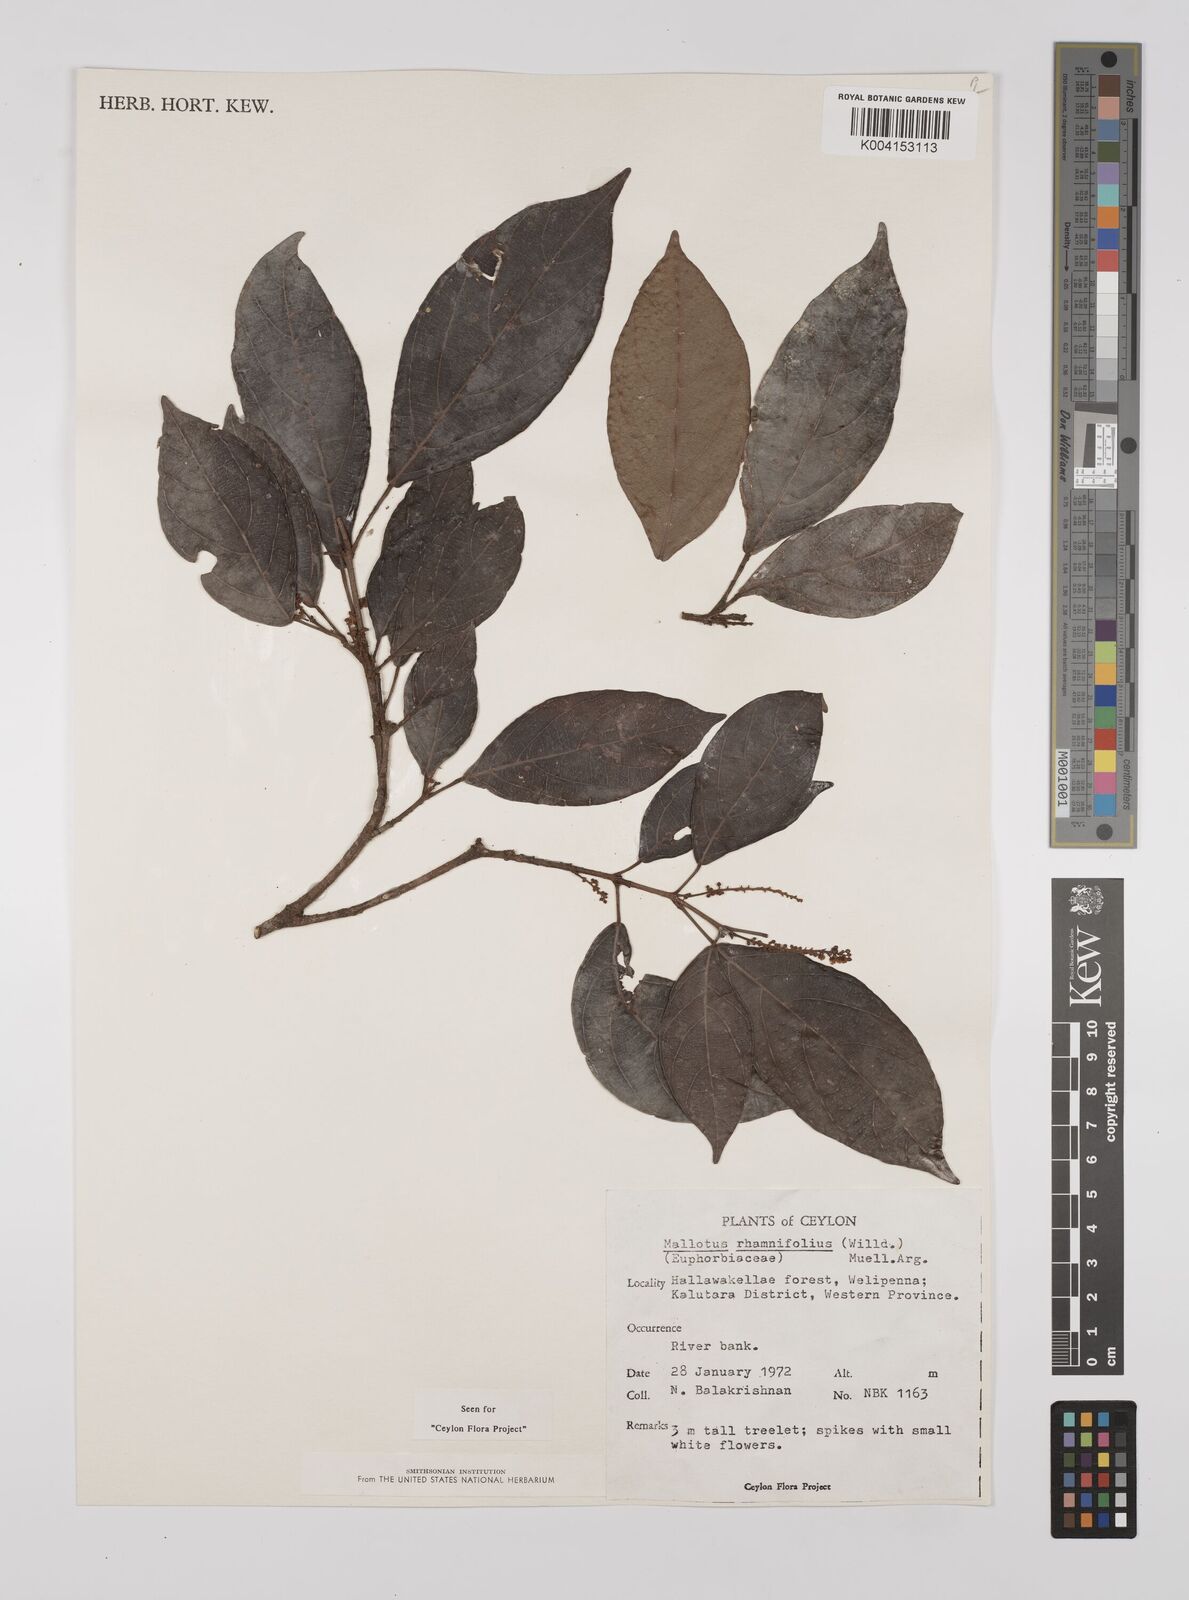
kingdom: Plantae
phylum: Tracheophyta
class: Magnoliopsida
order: Malpighiales
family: Euphorbiaceae
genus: Mallotus
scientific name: Mallotus rhamnifolius
